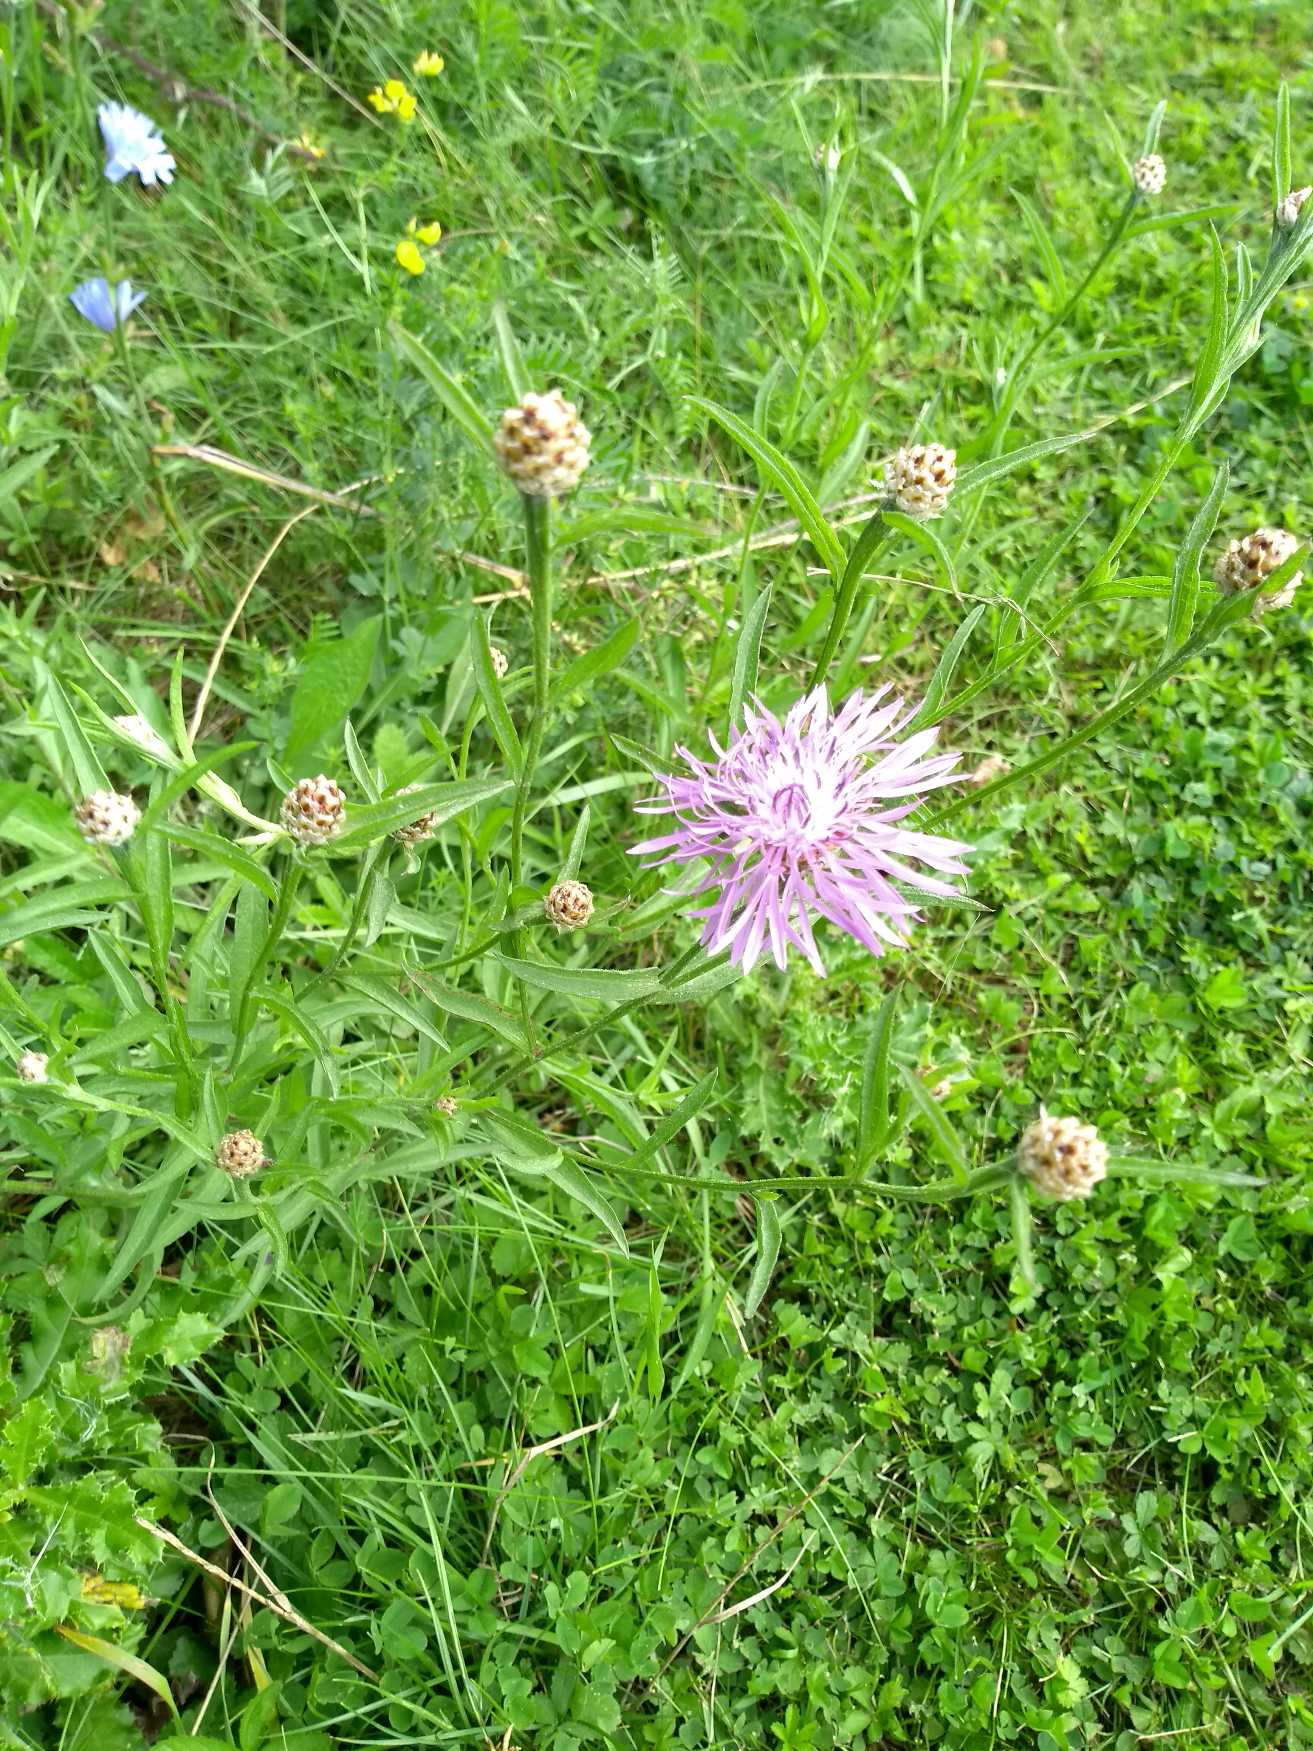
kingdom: Plantae
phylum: Tracheophyta
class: Magnoliopsida
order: Asterales
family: Asteraceae
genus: Centaurea
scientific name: Centaurea jacea
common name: Almindelig knopurt
